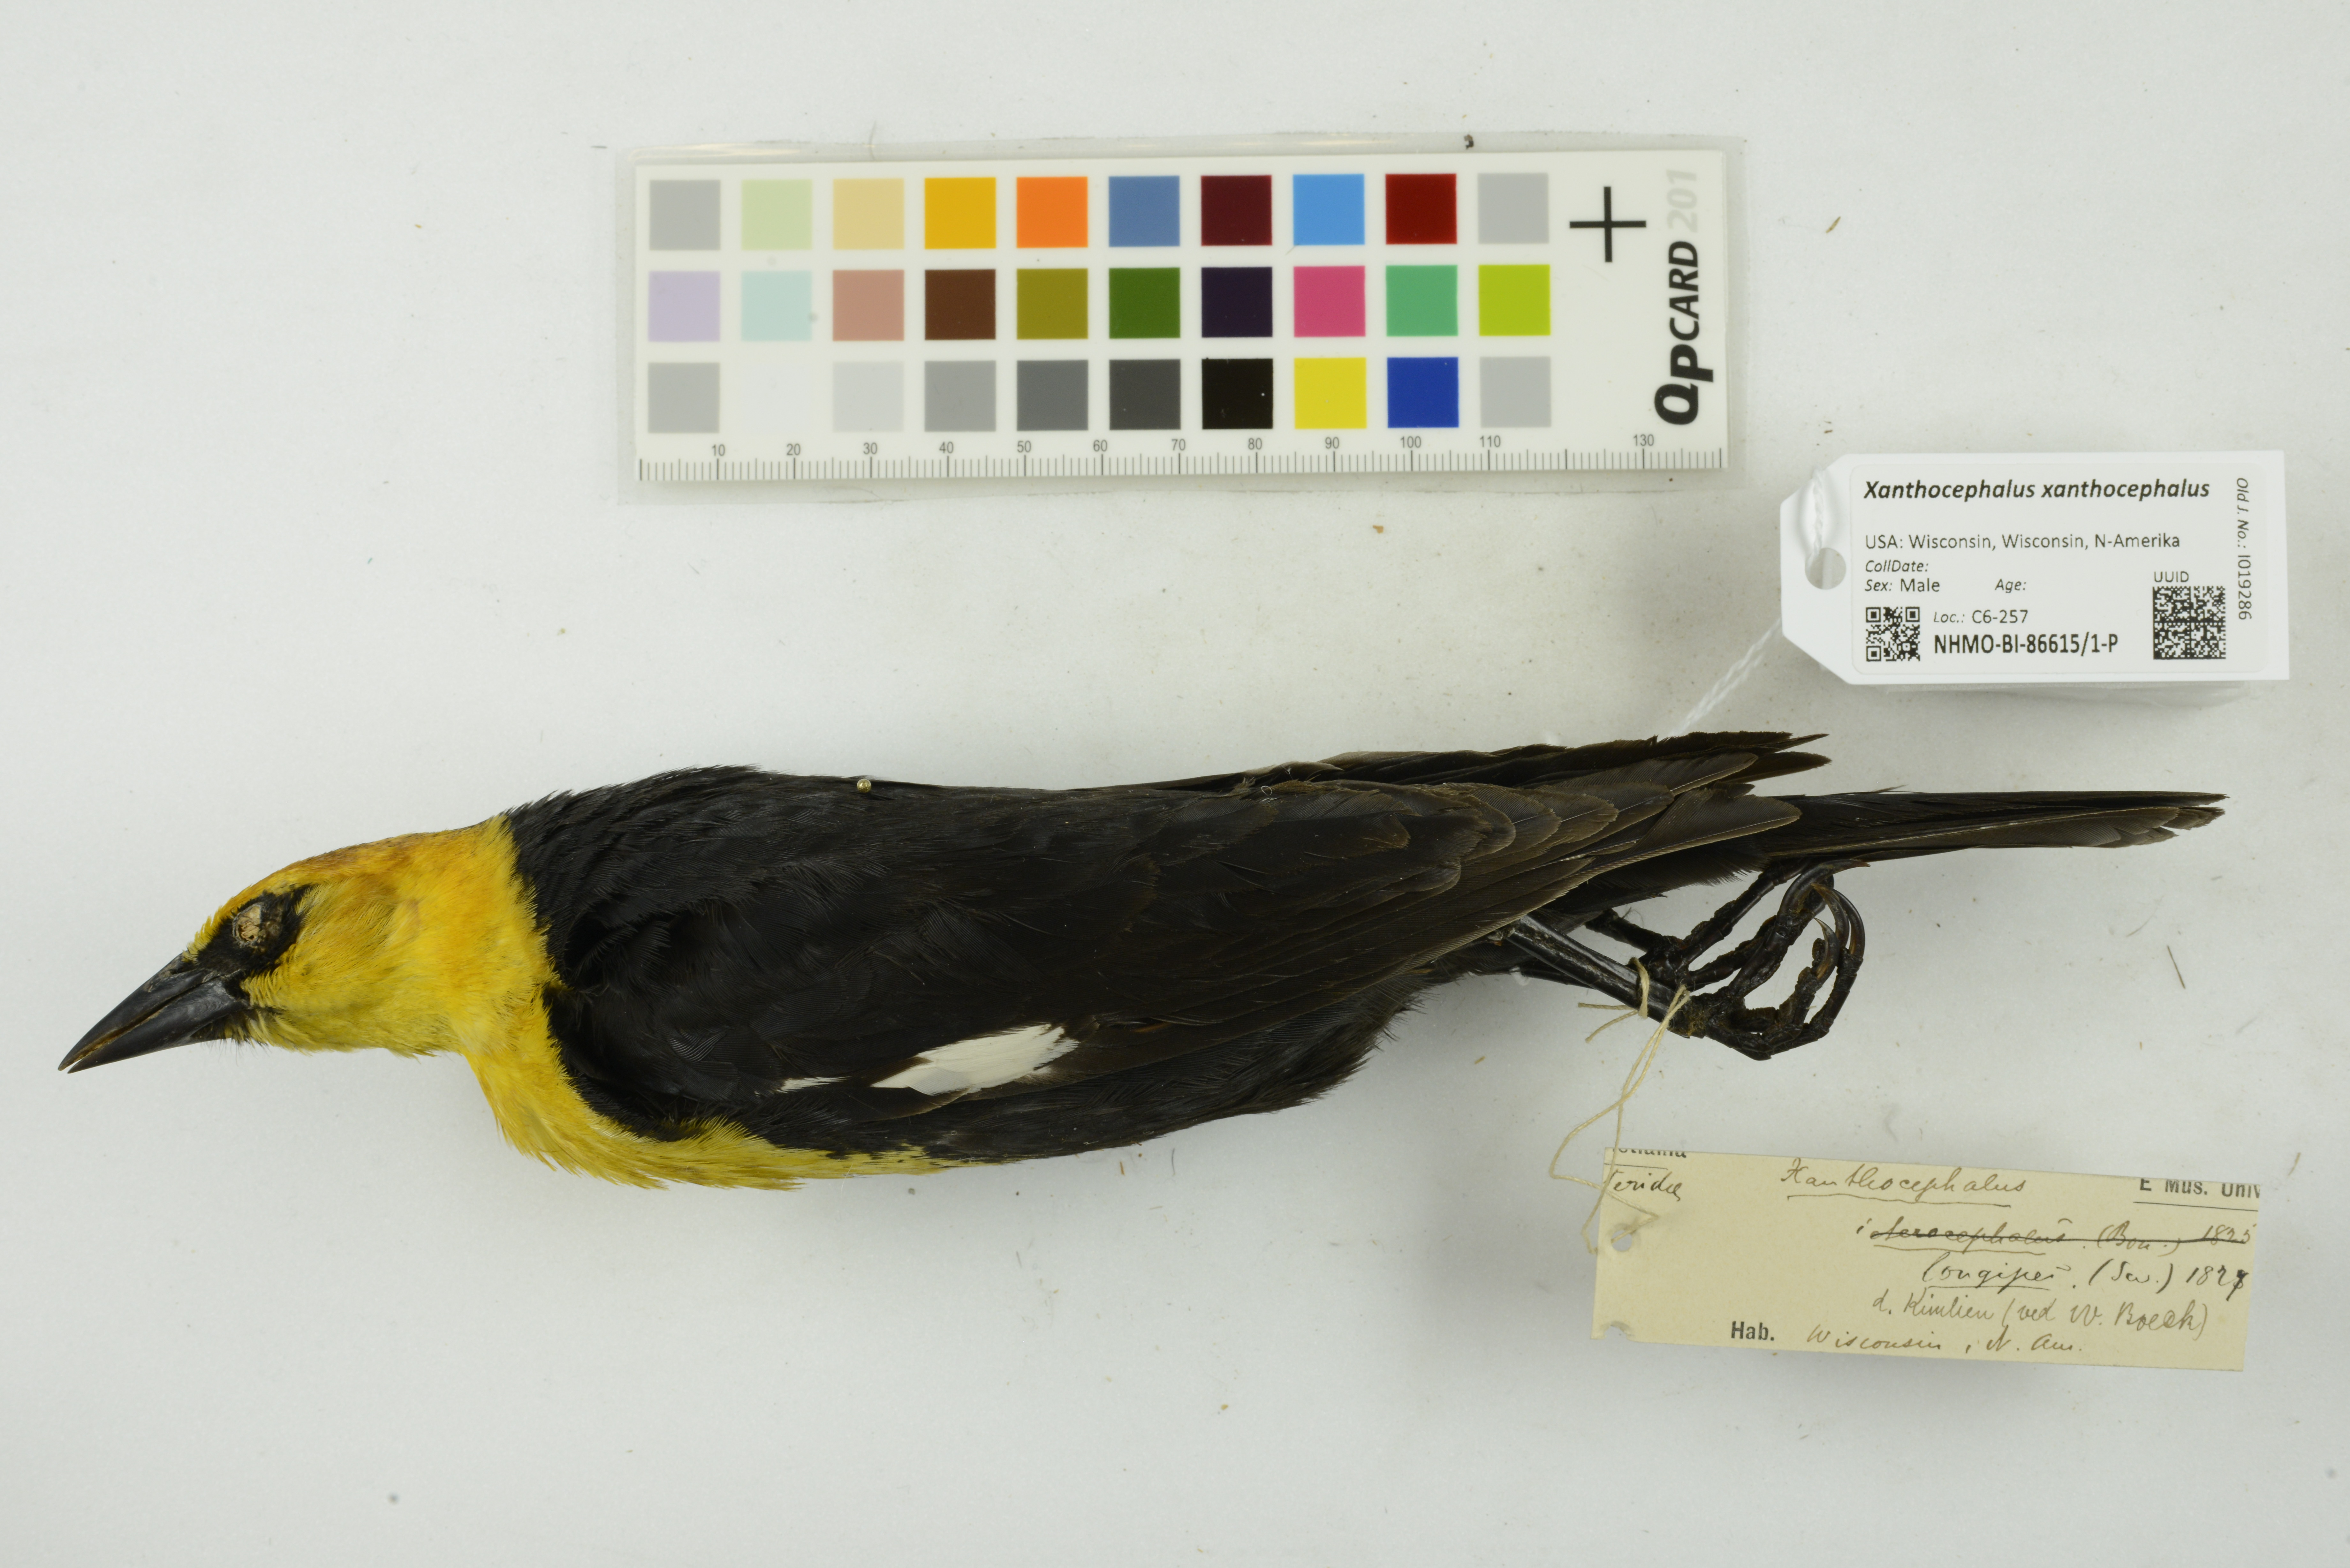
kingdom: Animalia
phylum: Chordata
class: Aves
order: Passeriformes
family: Icteridae
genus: Xanthocephalus
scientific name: Xanthocephalus xanthocephalus
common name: Yellow-headed blackbird
